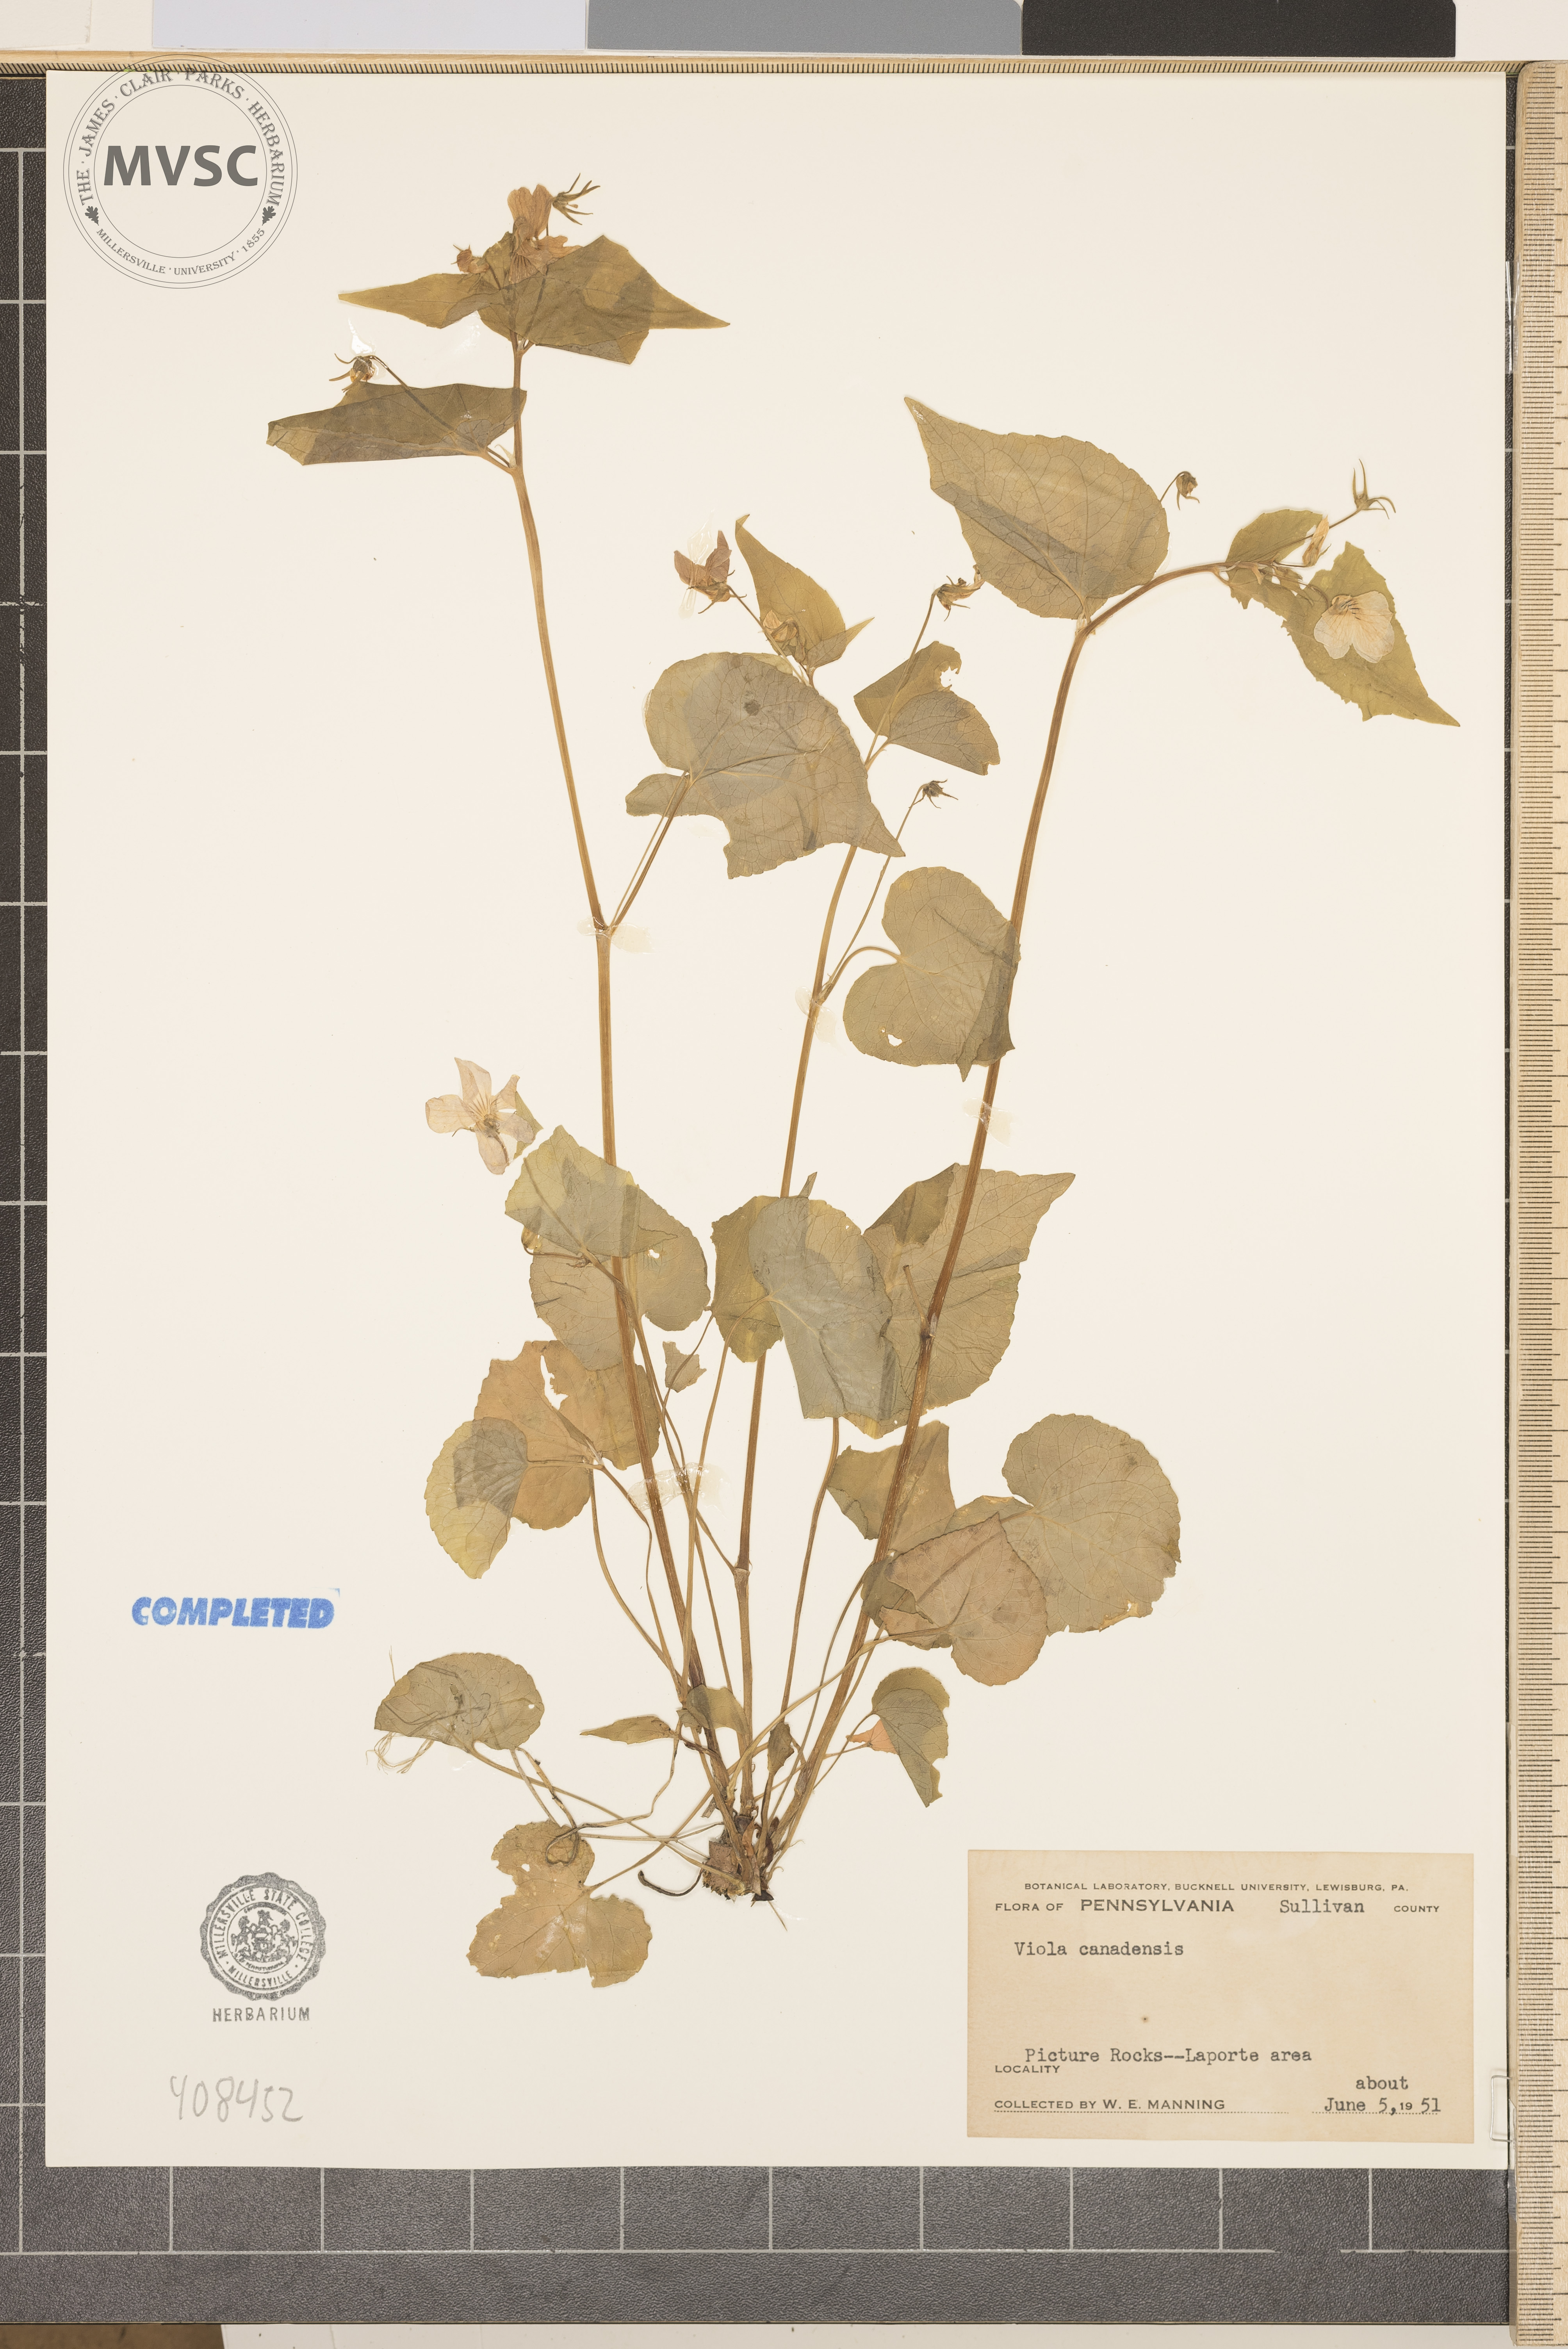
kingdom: Plantae
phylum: Tracheophyta
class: Magnoliopsida
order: Malpighiales
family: Violaceae
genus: Viola
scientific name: Viola canadensis
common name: Canada violet
